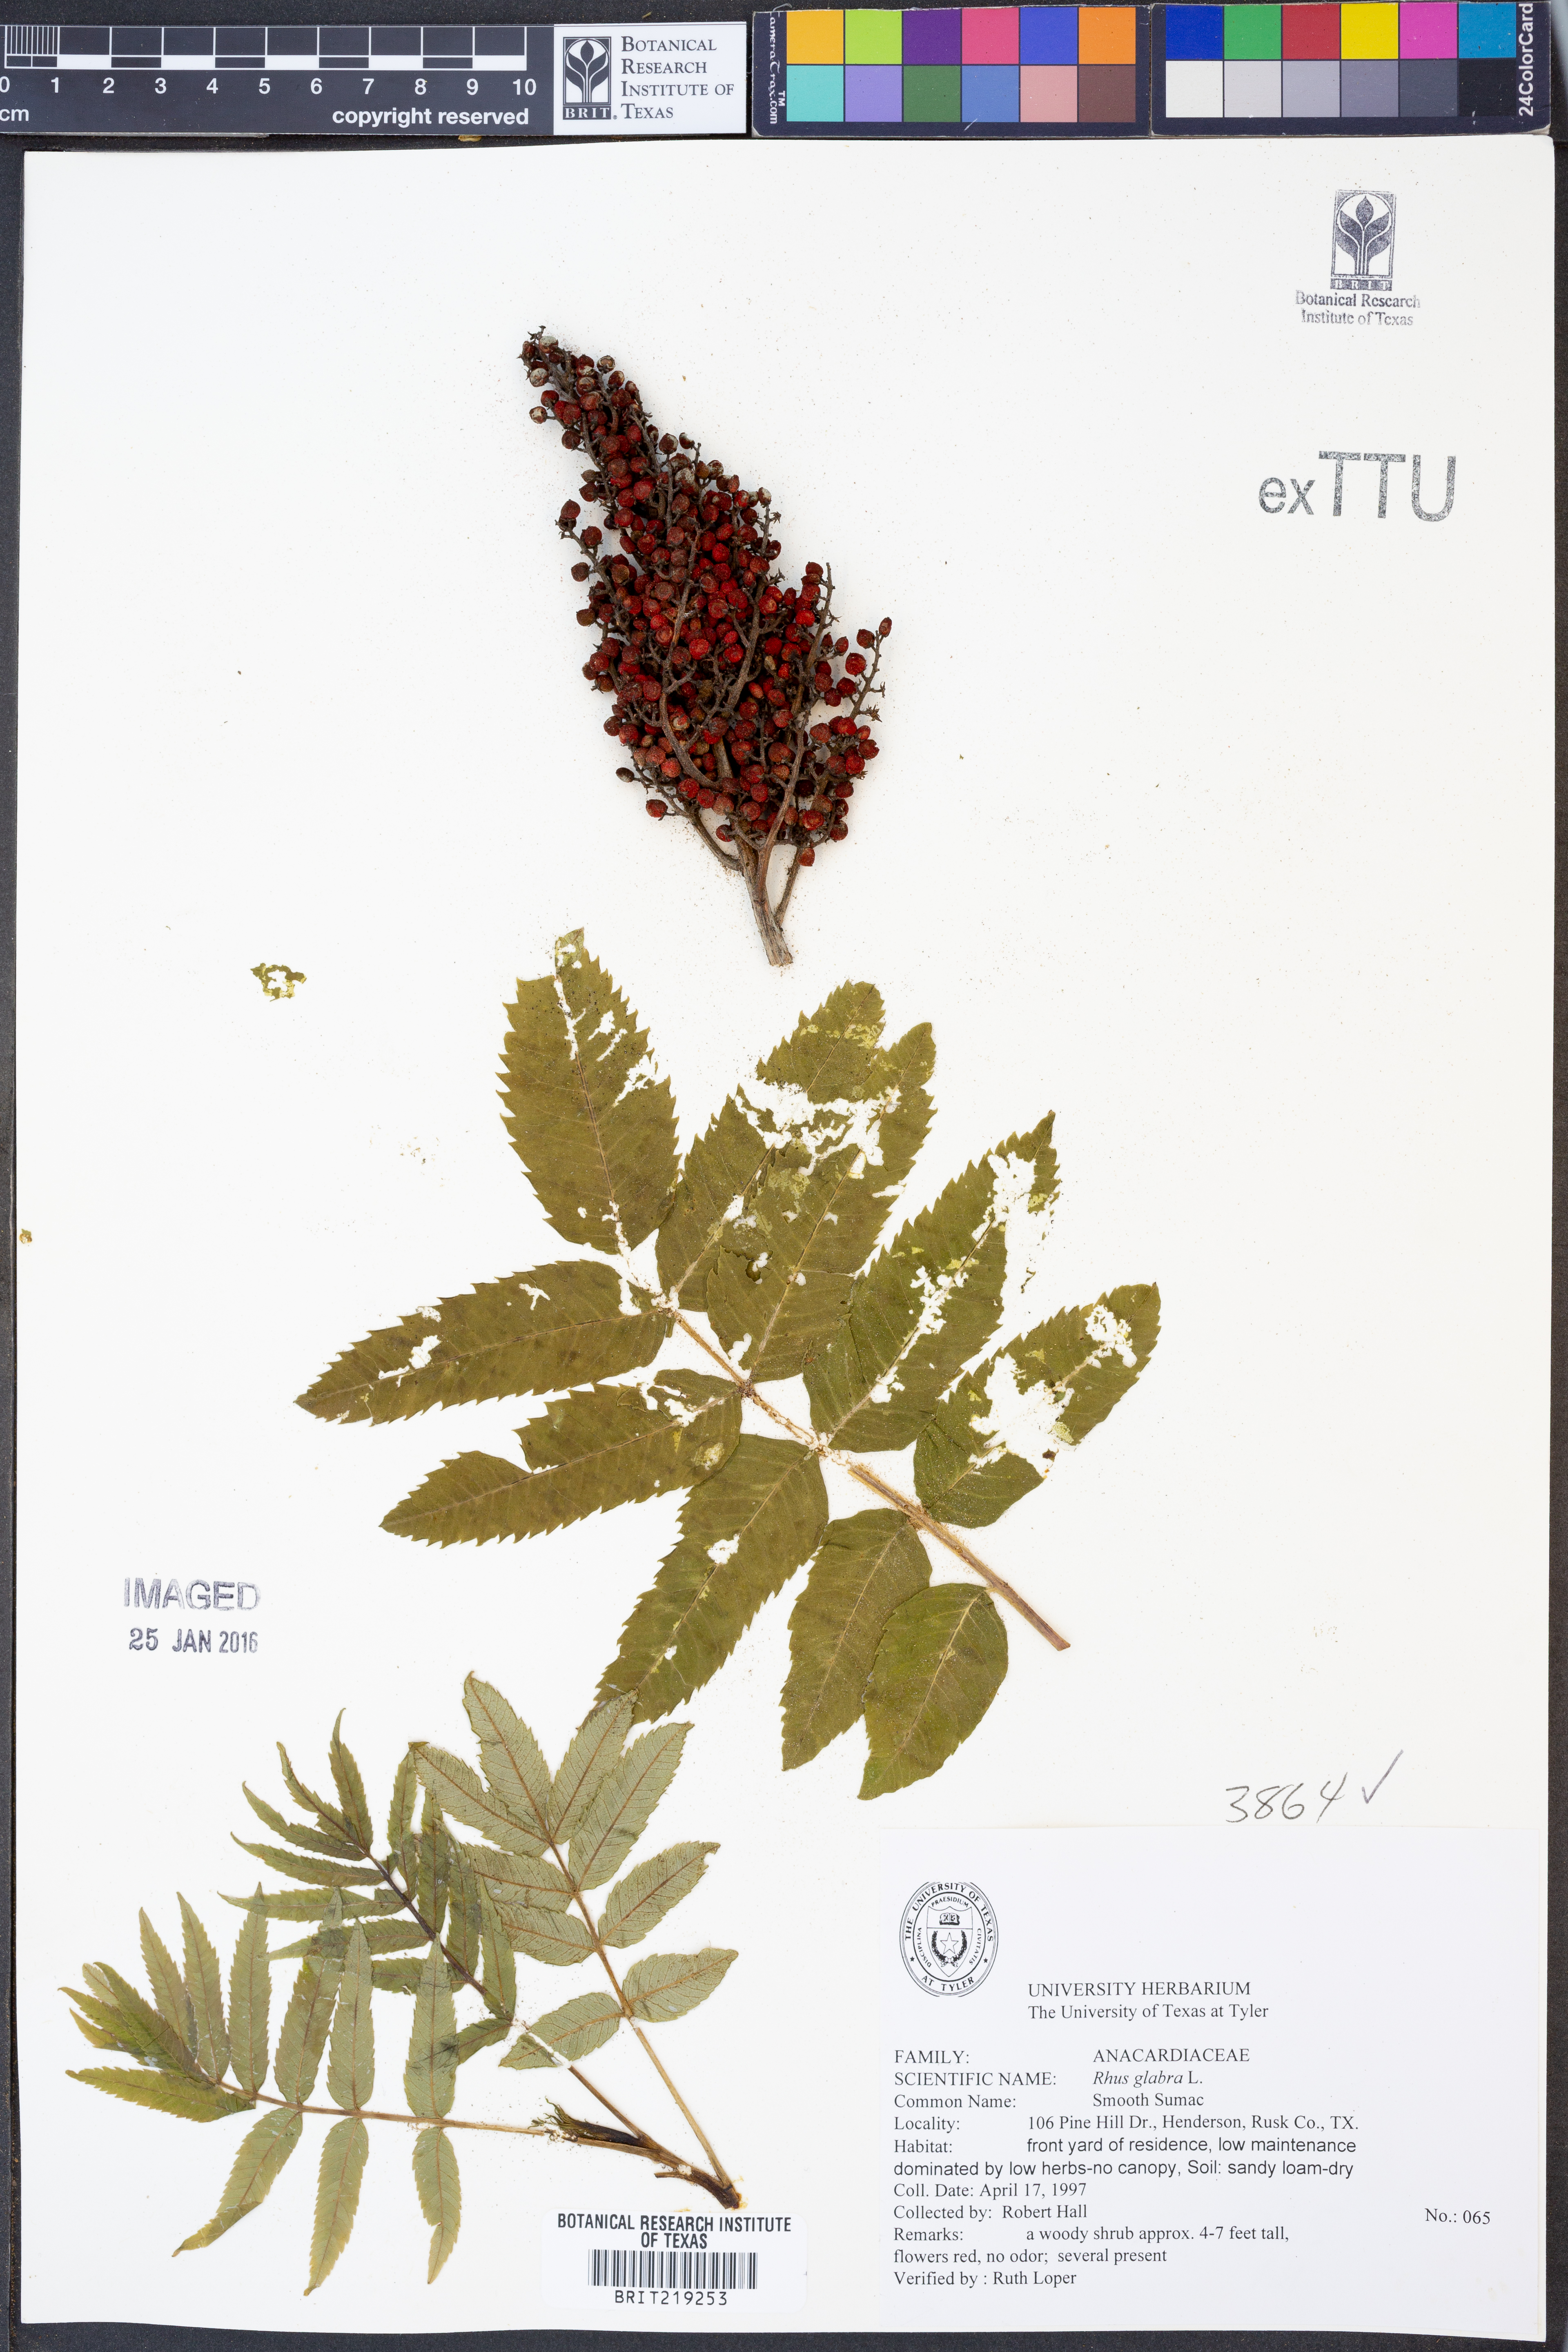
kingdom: Plantae
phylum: Tracheophyta
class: Magnoliopsida
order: Sapindales
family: Anacardiaceae
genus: Rhus
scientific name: Rhus glabra
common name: Scarlet sumac
